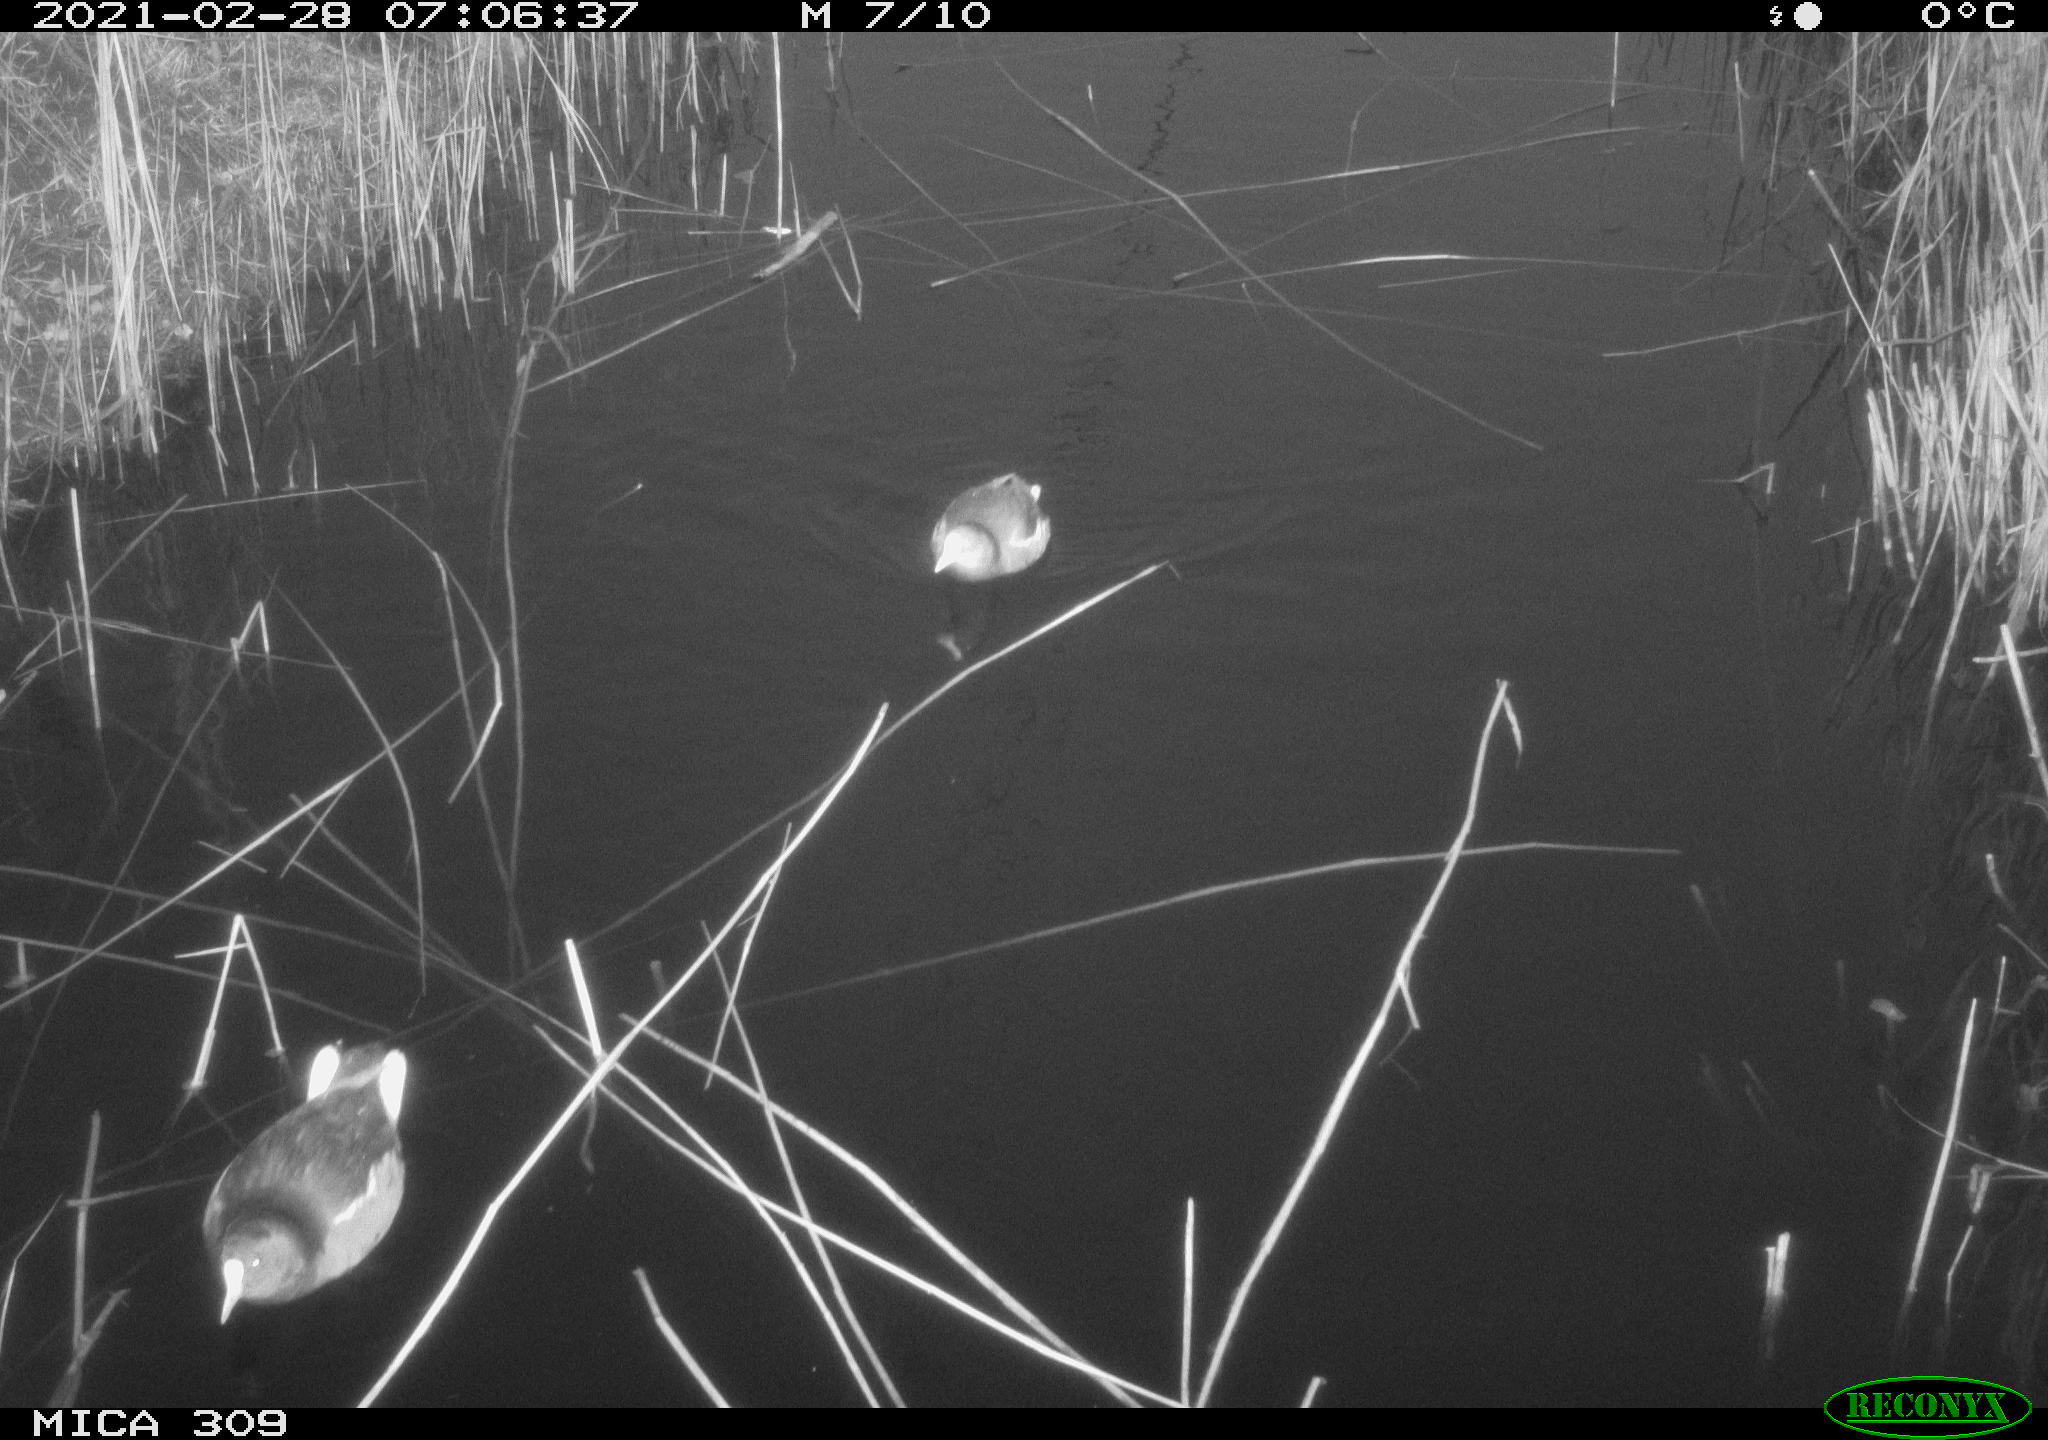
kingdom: Animalia
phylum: Chordata
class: Aves
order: Gruiformes
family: Rallidae
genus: Gallinula
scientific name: Gallinula chloropus
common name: Common moorhen
